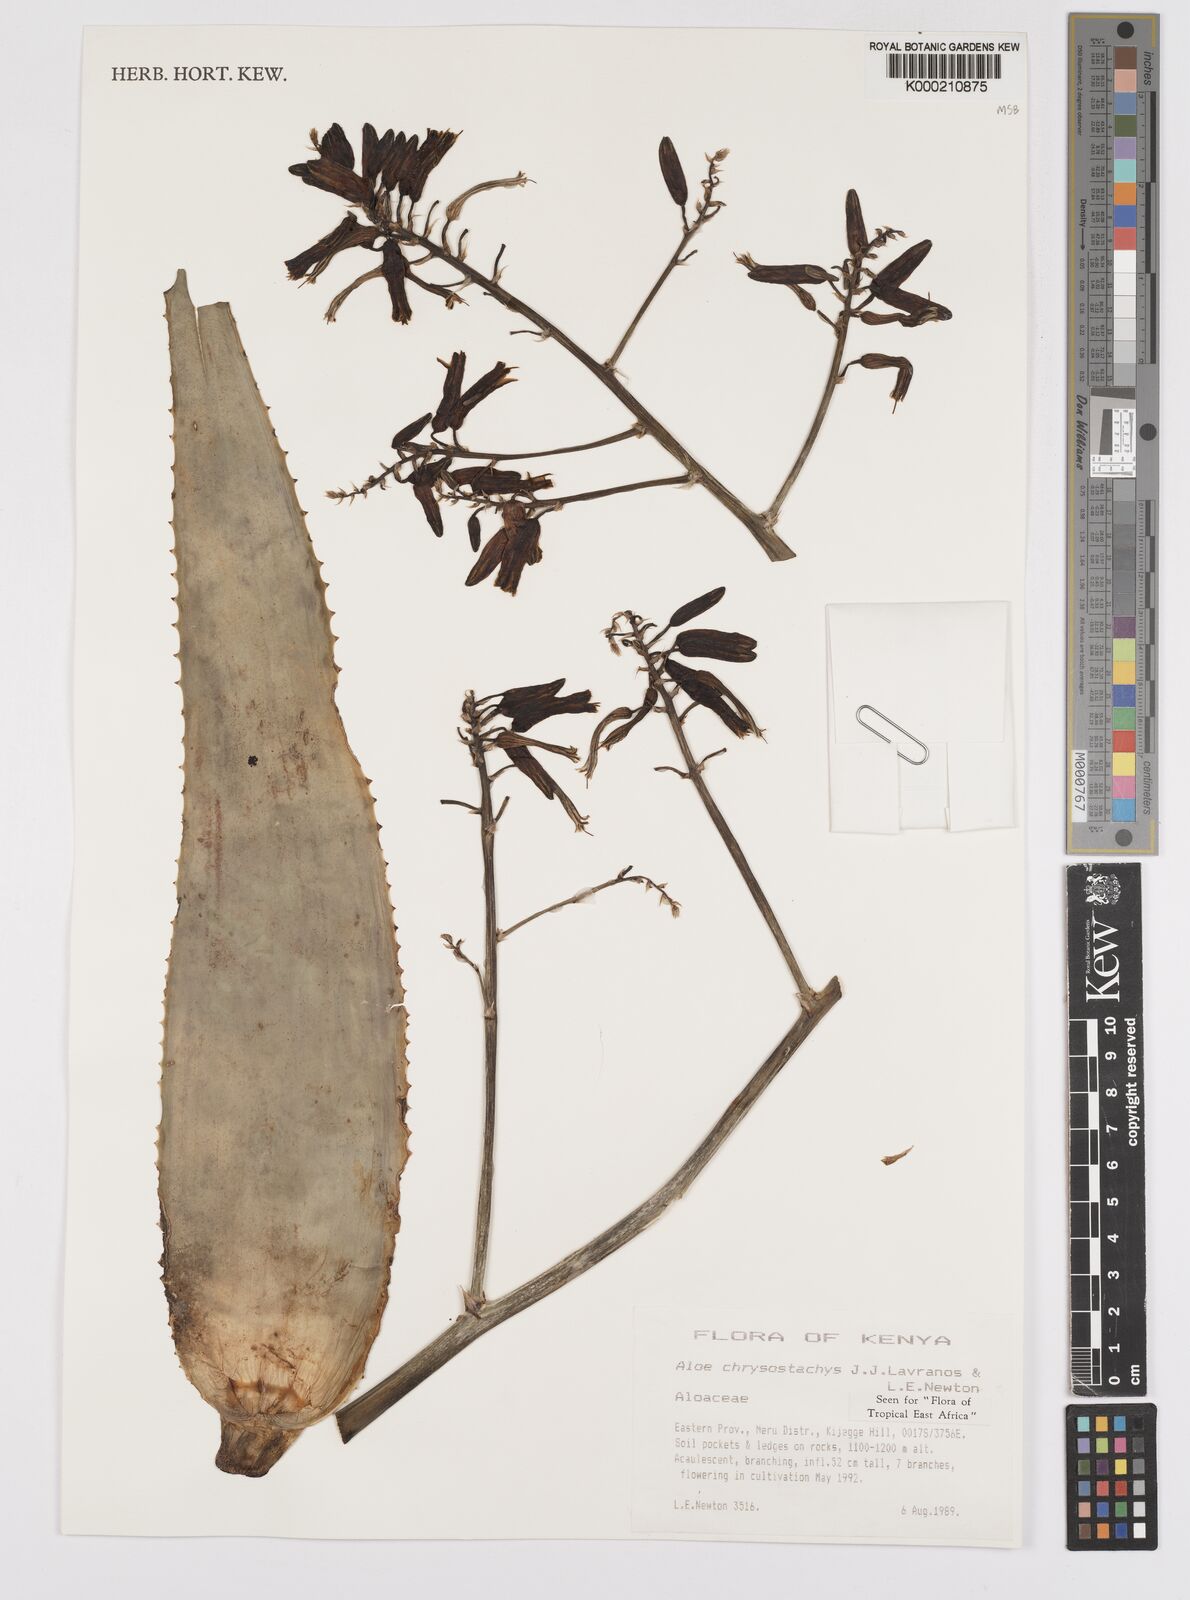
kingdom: Plantae
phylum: Tracheophyta
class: Liliopsida
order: Asparagales
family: Asphodelaceae
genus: Aloe
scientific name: Aloe chrysostachys
